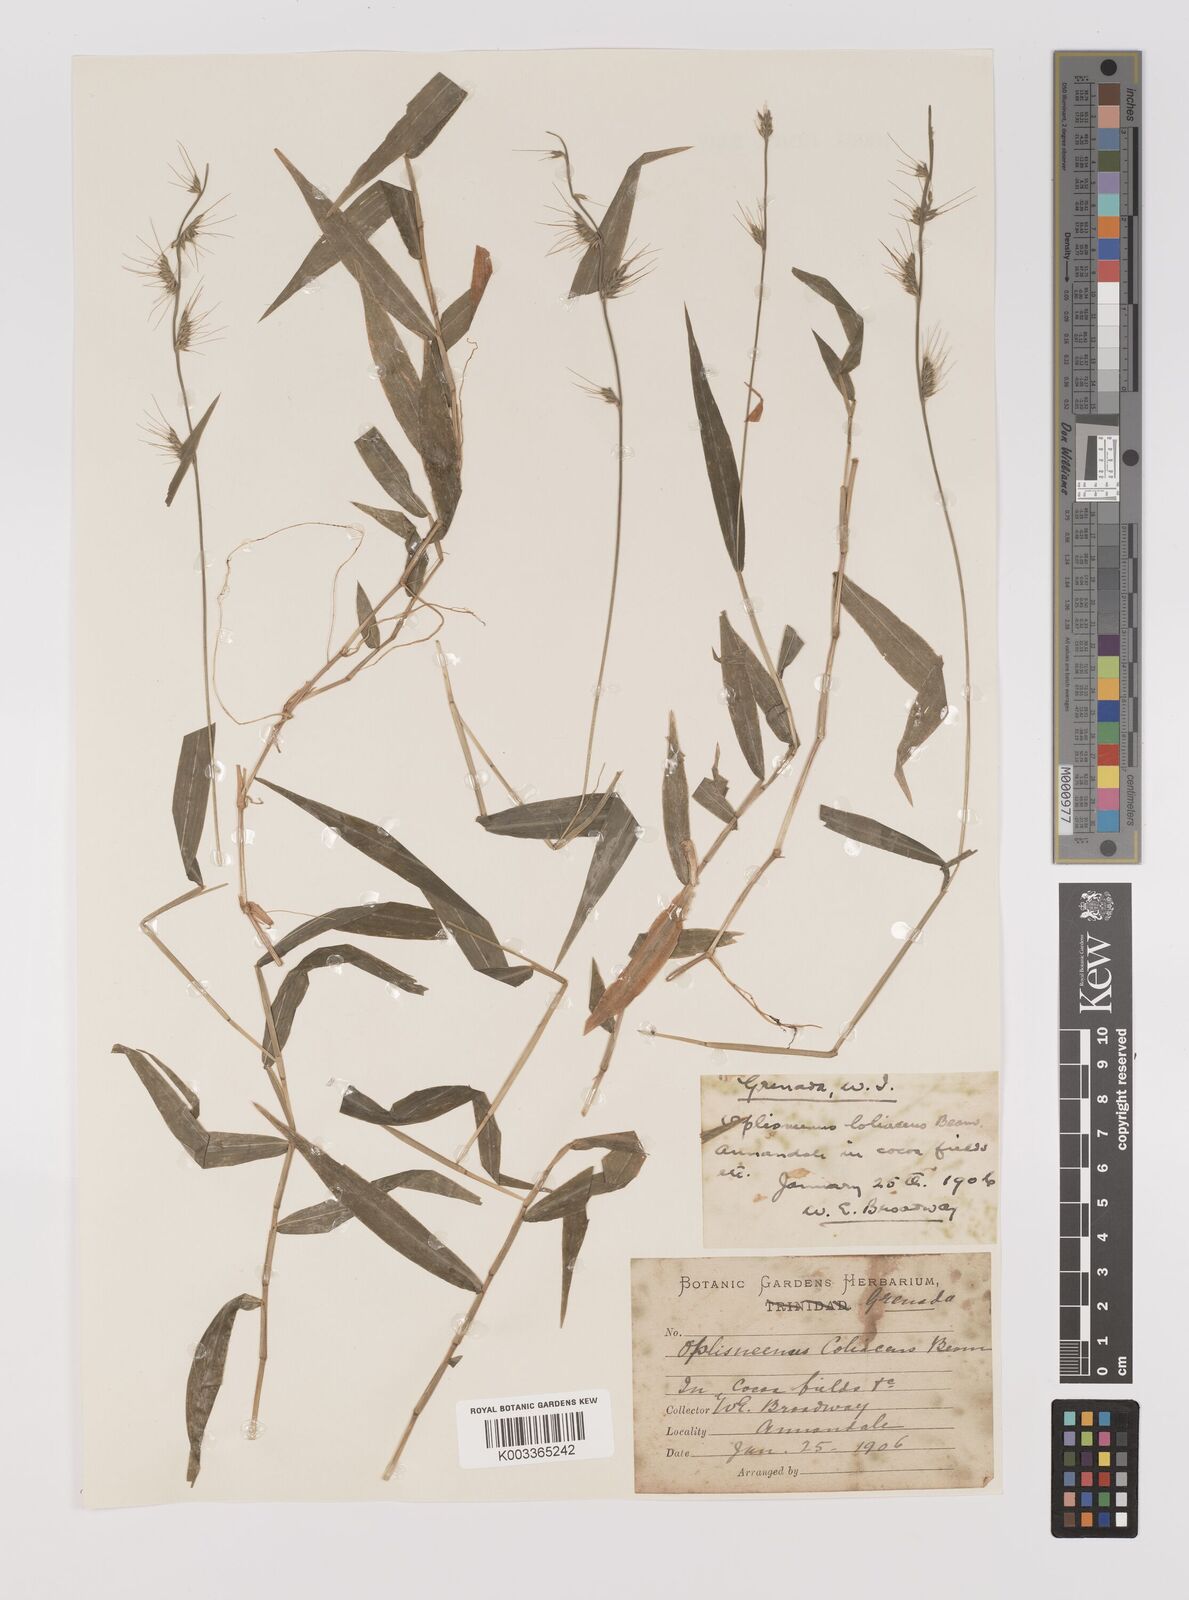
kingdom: Plantae
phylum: Tracheophyta
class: Liliopsida
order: Poales
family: Poaceae
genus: Oplismenus
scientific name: Oplismenus hirtellus
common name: Basketgrass
